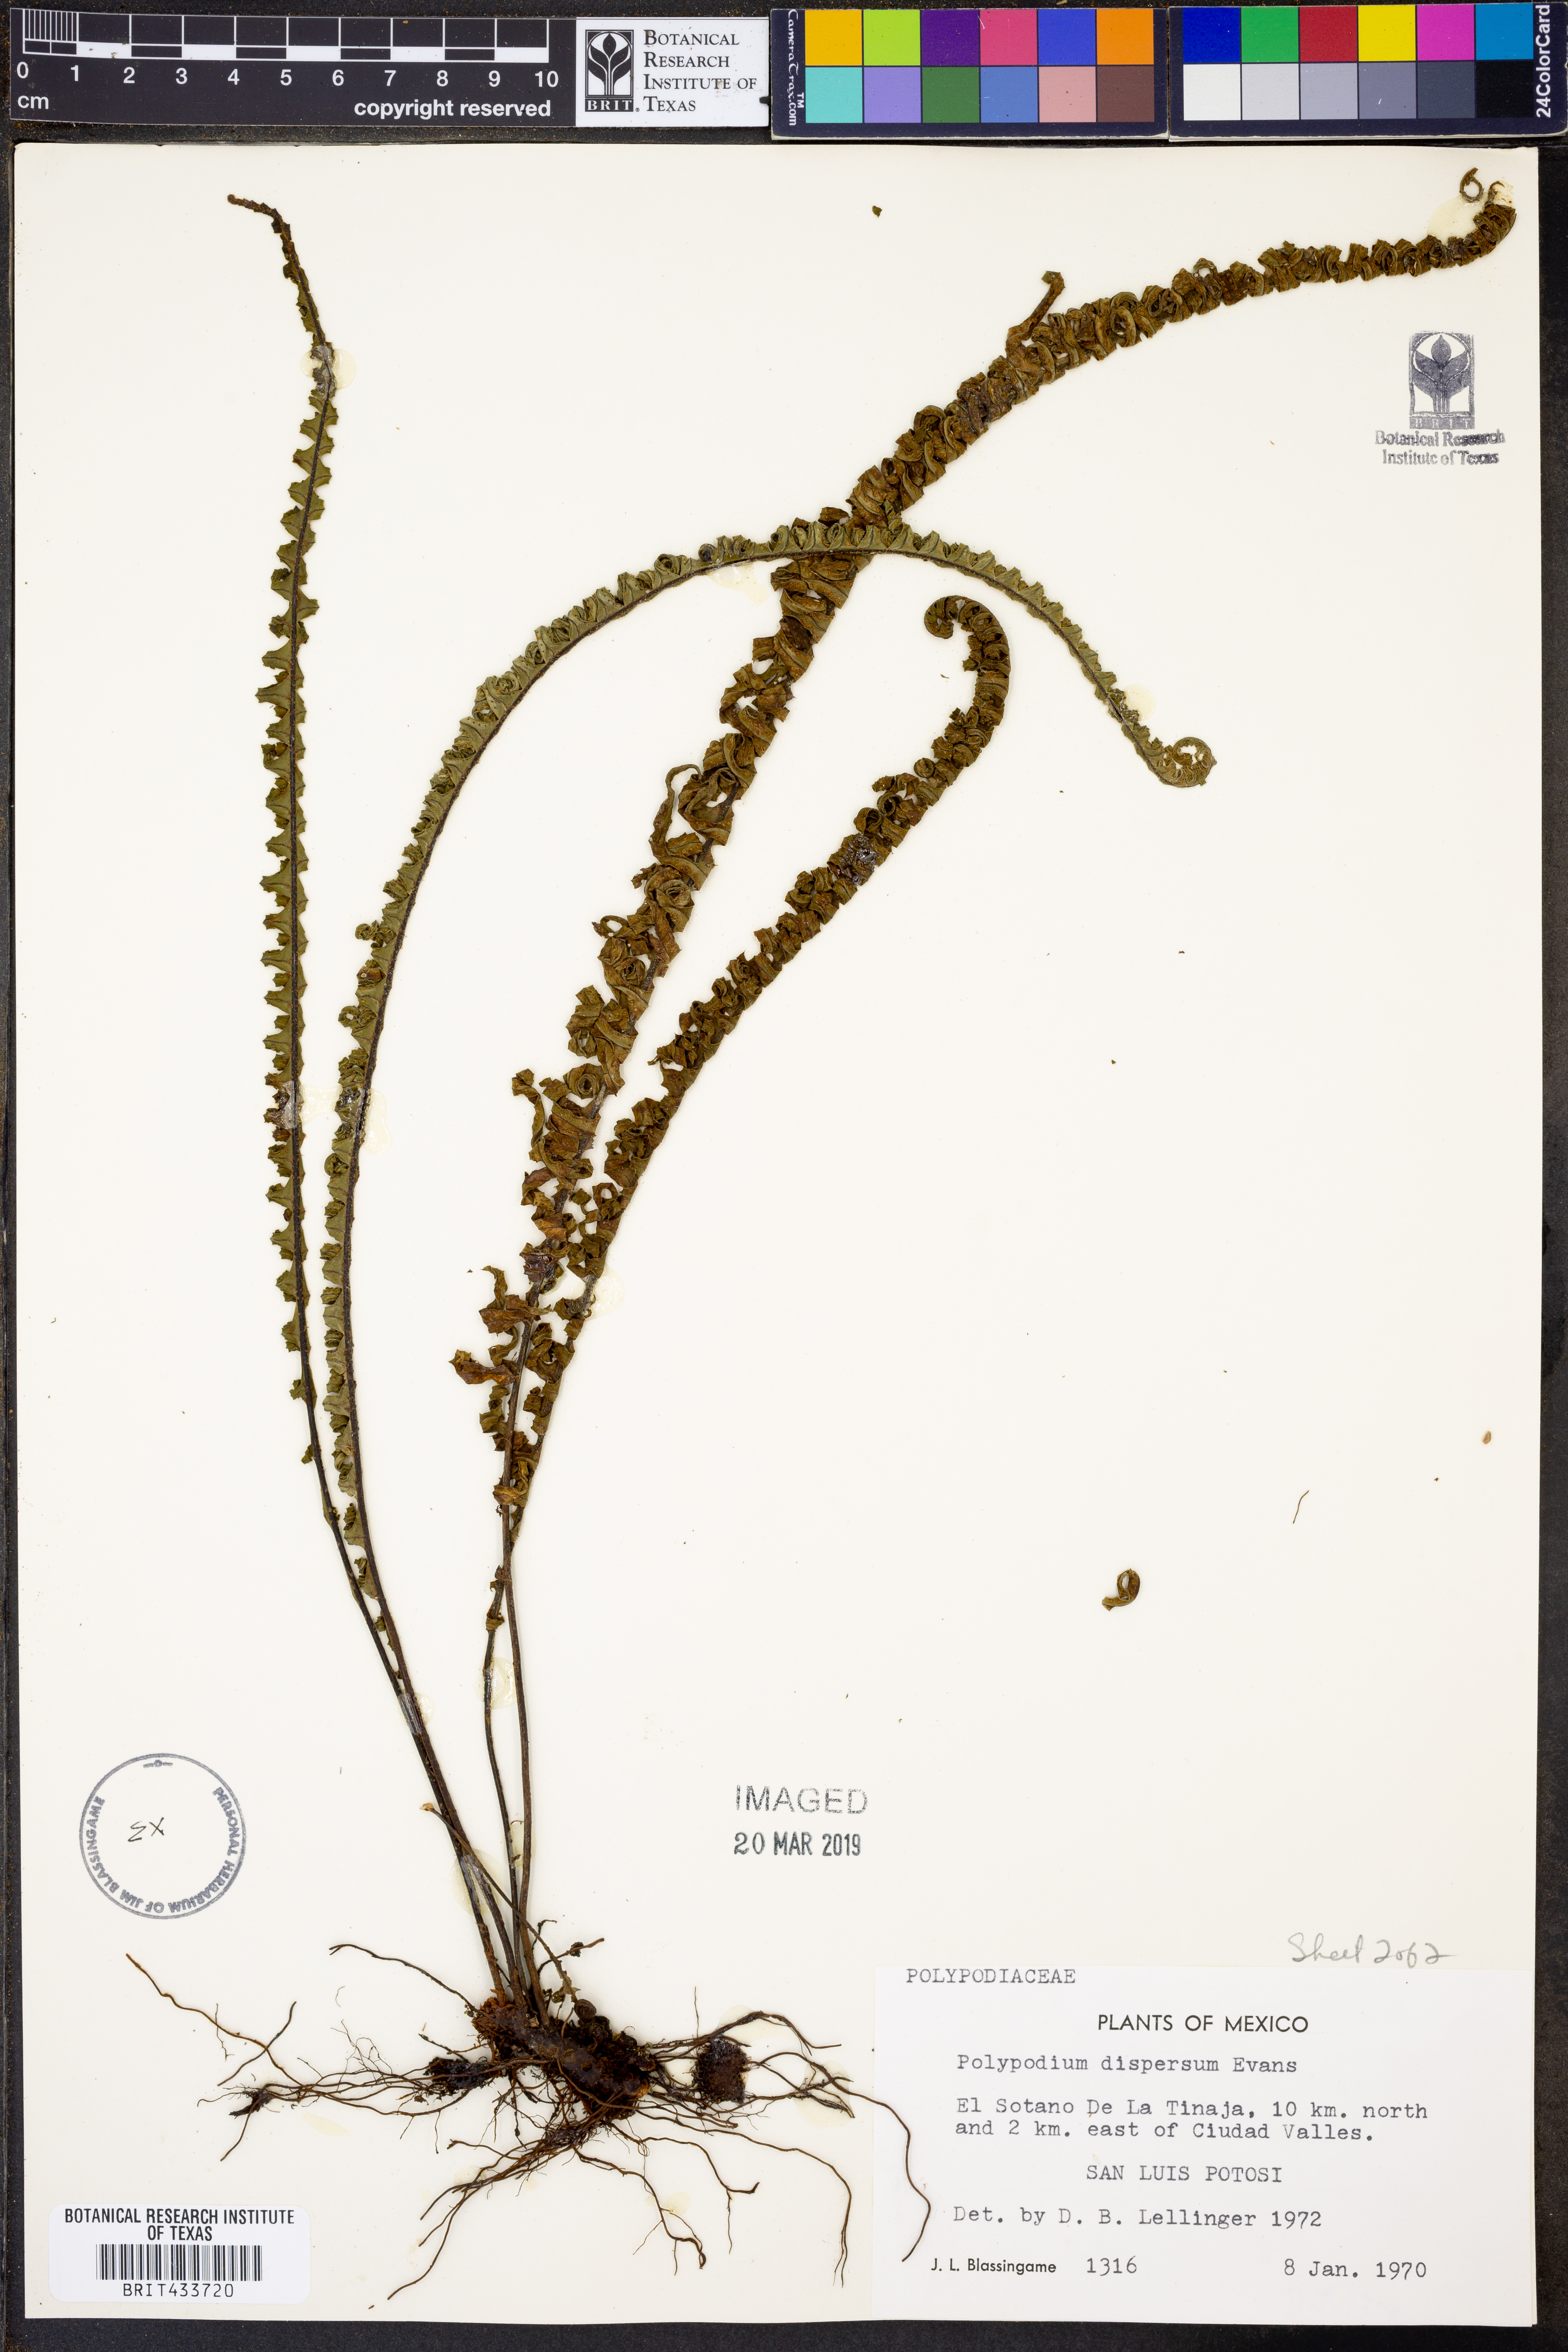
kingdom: Plantae
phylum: Tracheophyta
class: Polypodiopsida
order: Polypodiales
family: Polypodiaceae
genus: Pecluma
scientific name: Pecluma dispersa
